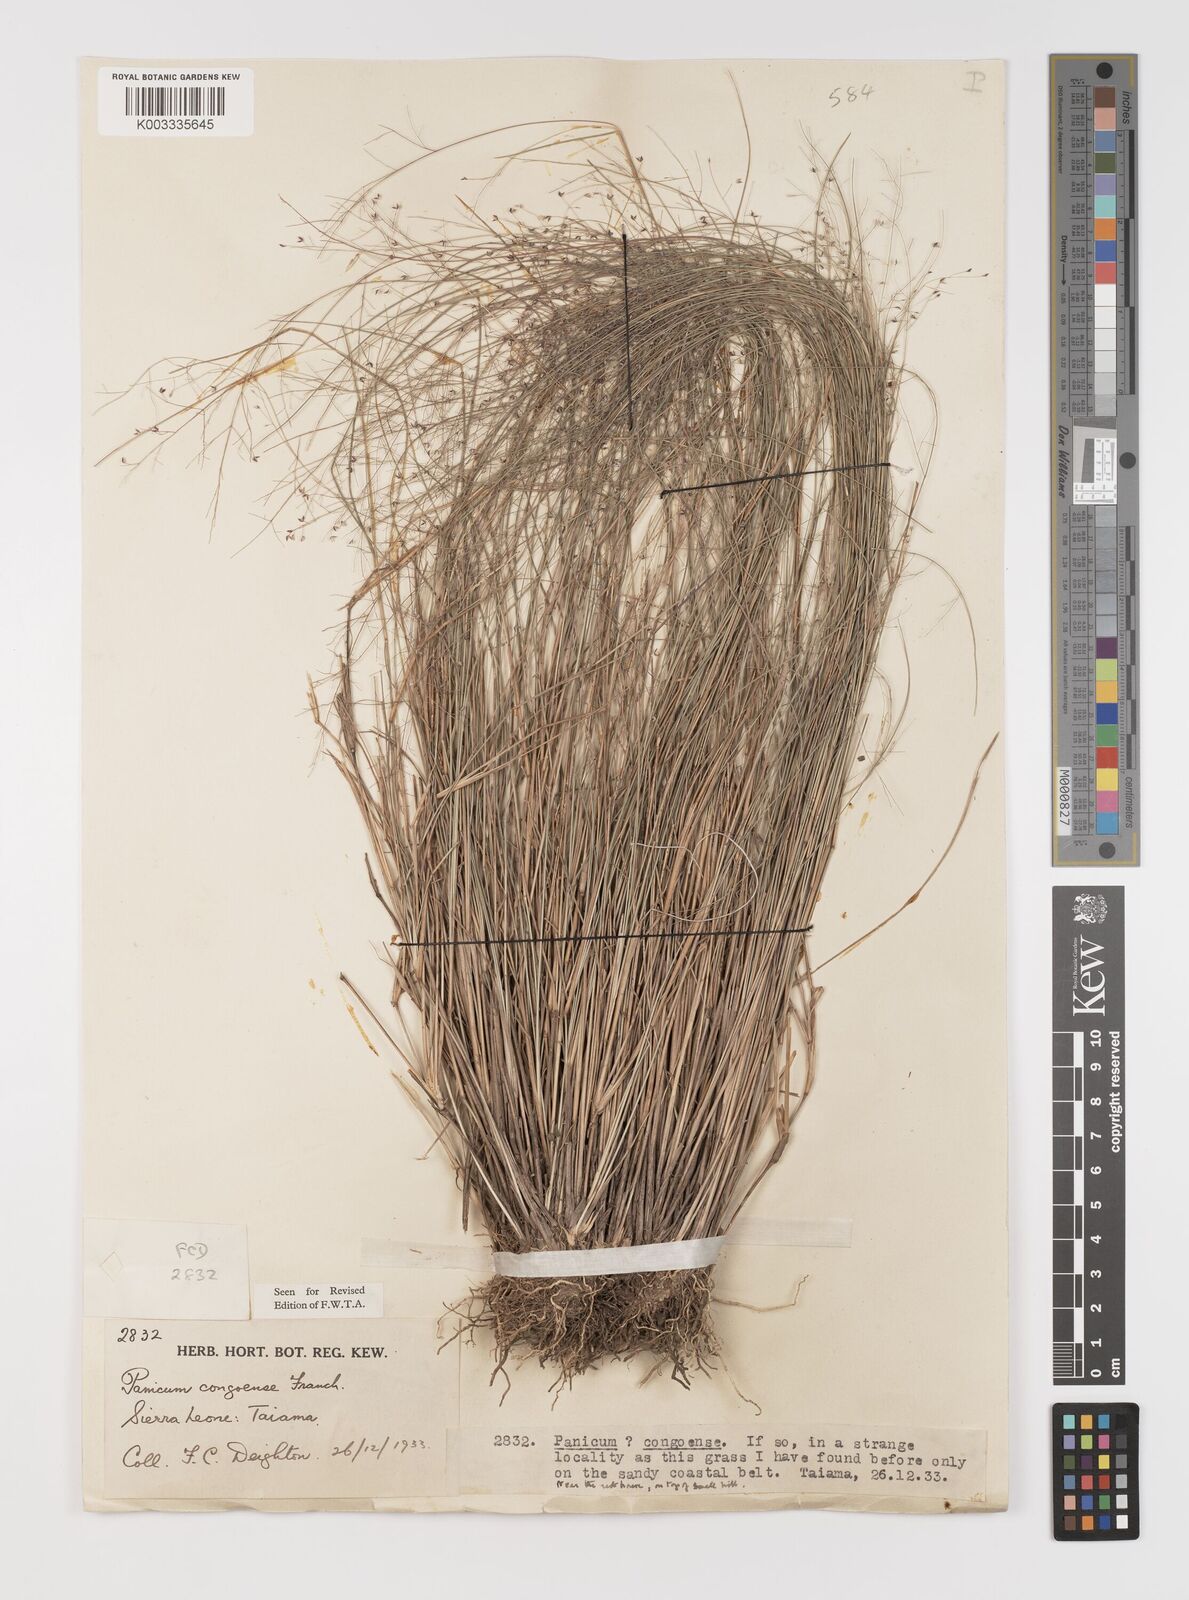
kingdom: Plantae
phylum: Tracheophyta
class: Liliopsida
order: Poales
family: Poaceae
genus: Panicum
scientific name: Panicum congoense
